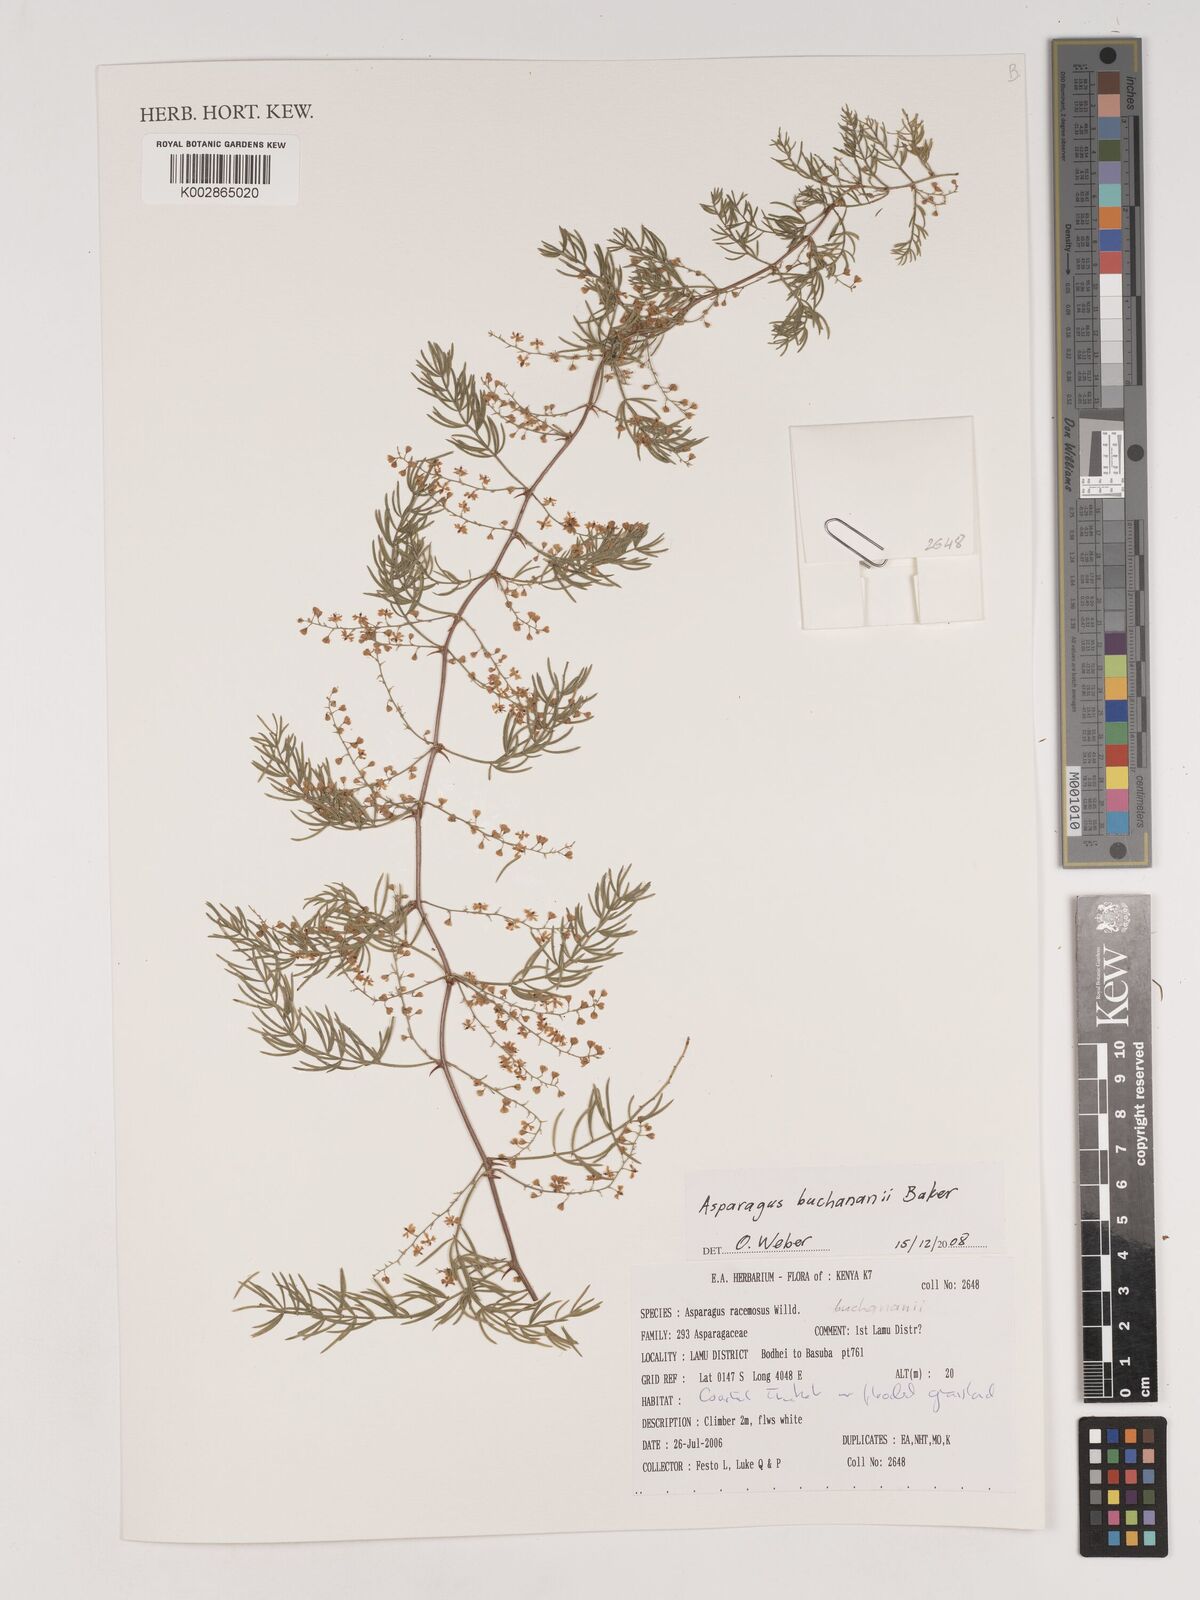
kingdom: Plantae
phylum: Tracheophyta
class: Liliopsida
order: Asparagales
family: Asparagaceae
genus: Asparagus
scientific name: Asparagus buchananii
